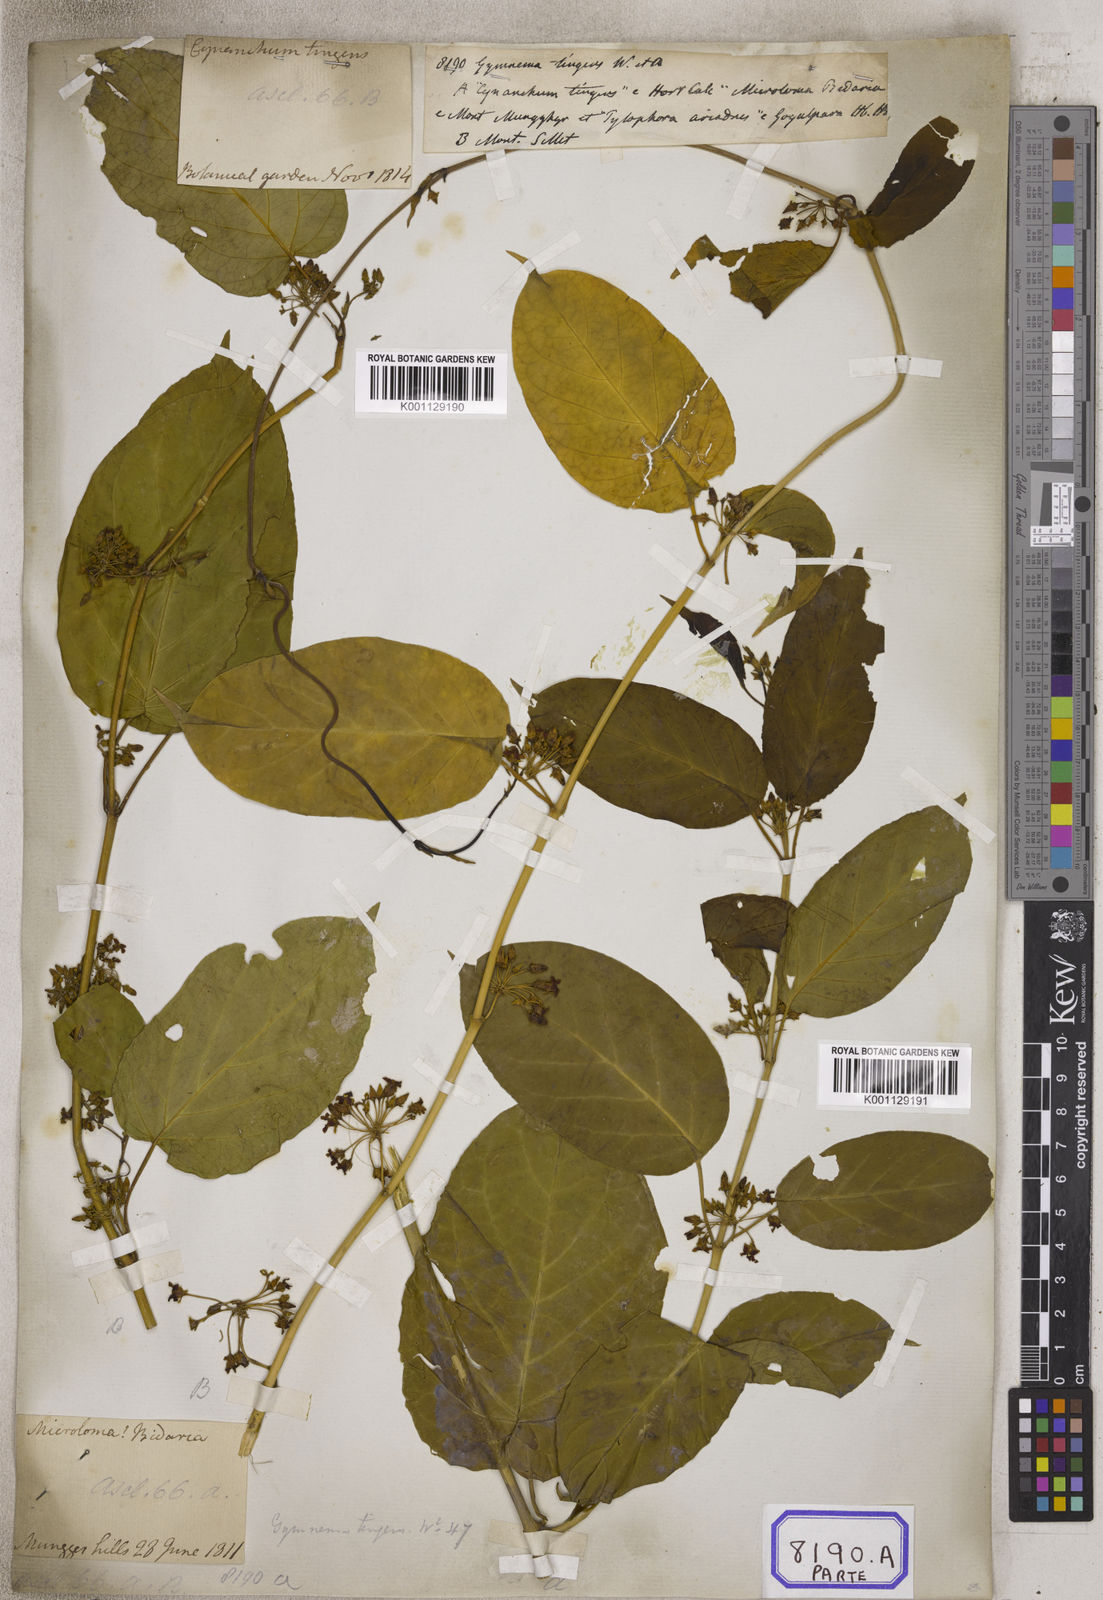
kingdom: Plantae
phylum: Tracheophyta
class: Magnoliopsida
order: Gentianales
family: Apocynaceae
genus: Gymnema
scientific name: Gymnema inodorum
